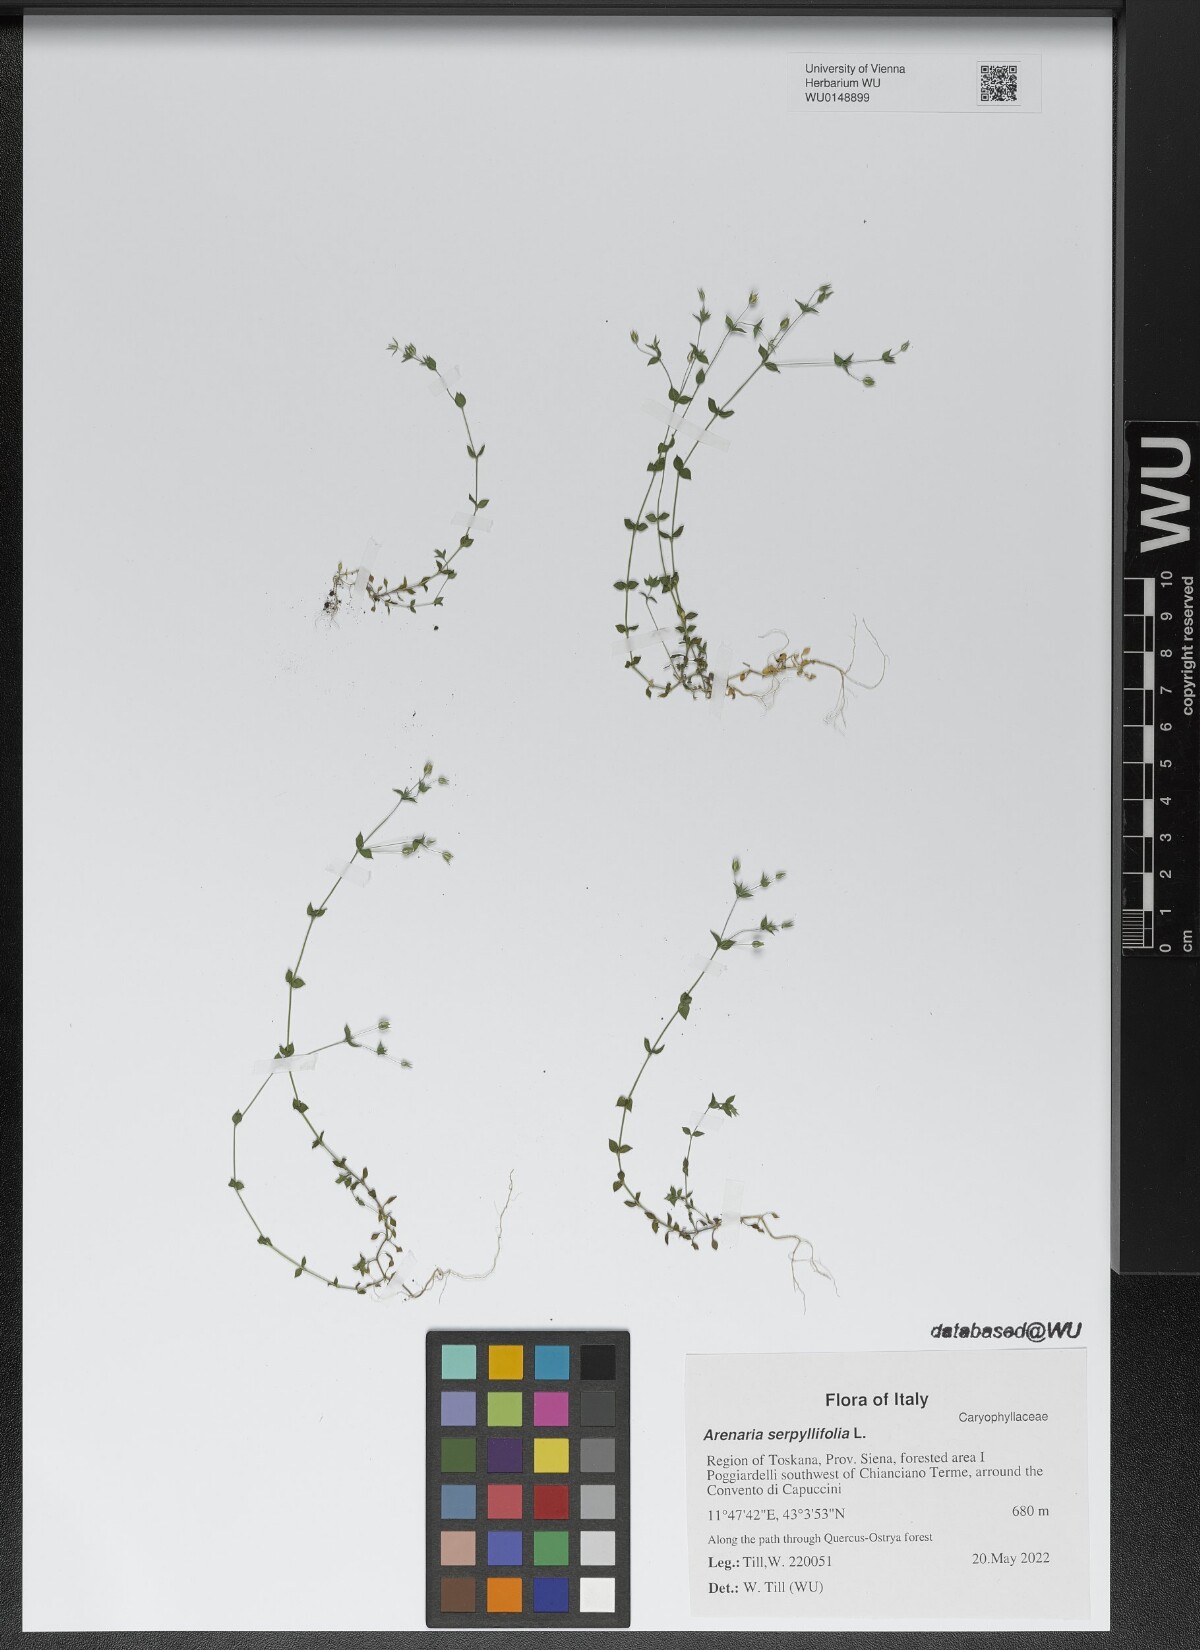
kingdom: Plantae
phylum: Tracheophyta
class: Magnoliopsida
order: Caryophyllales
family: Caryophyllaceae
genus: Arenaria
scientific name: Arenaria serpyllifolia
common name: Thyme-leaved sandwort
